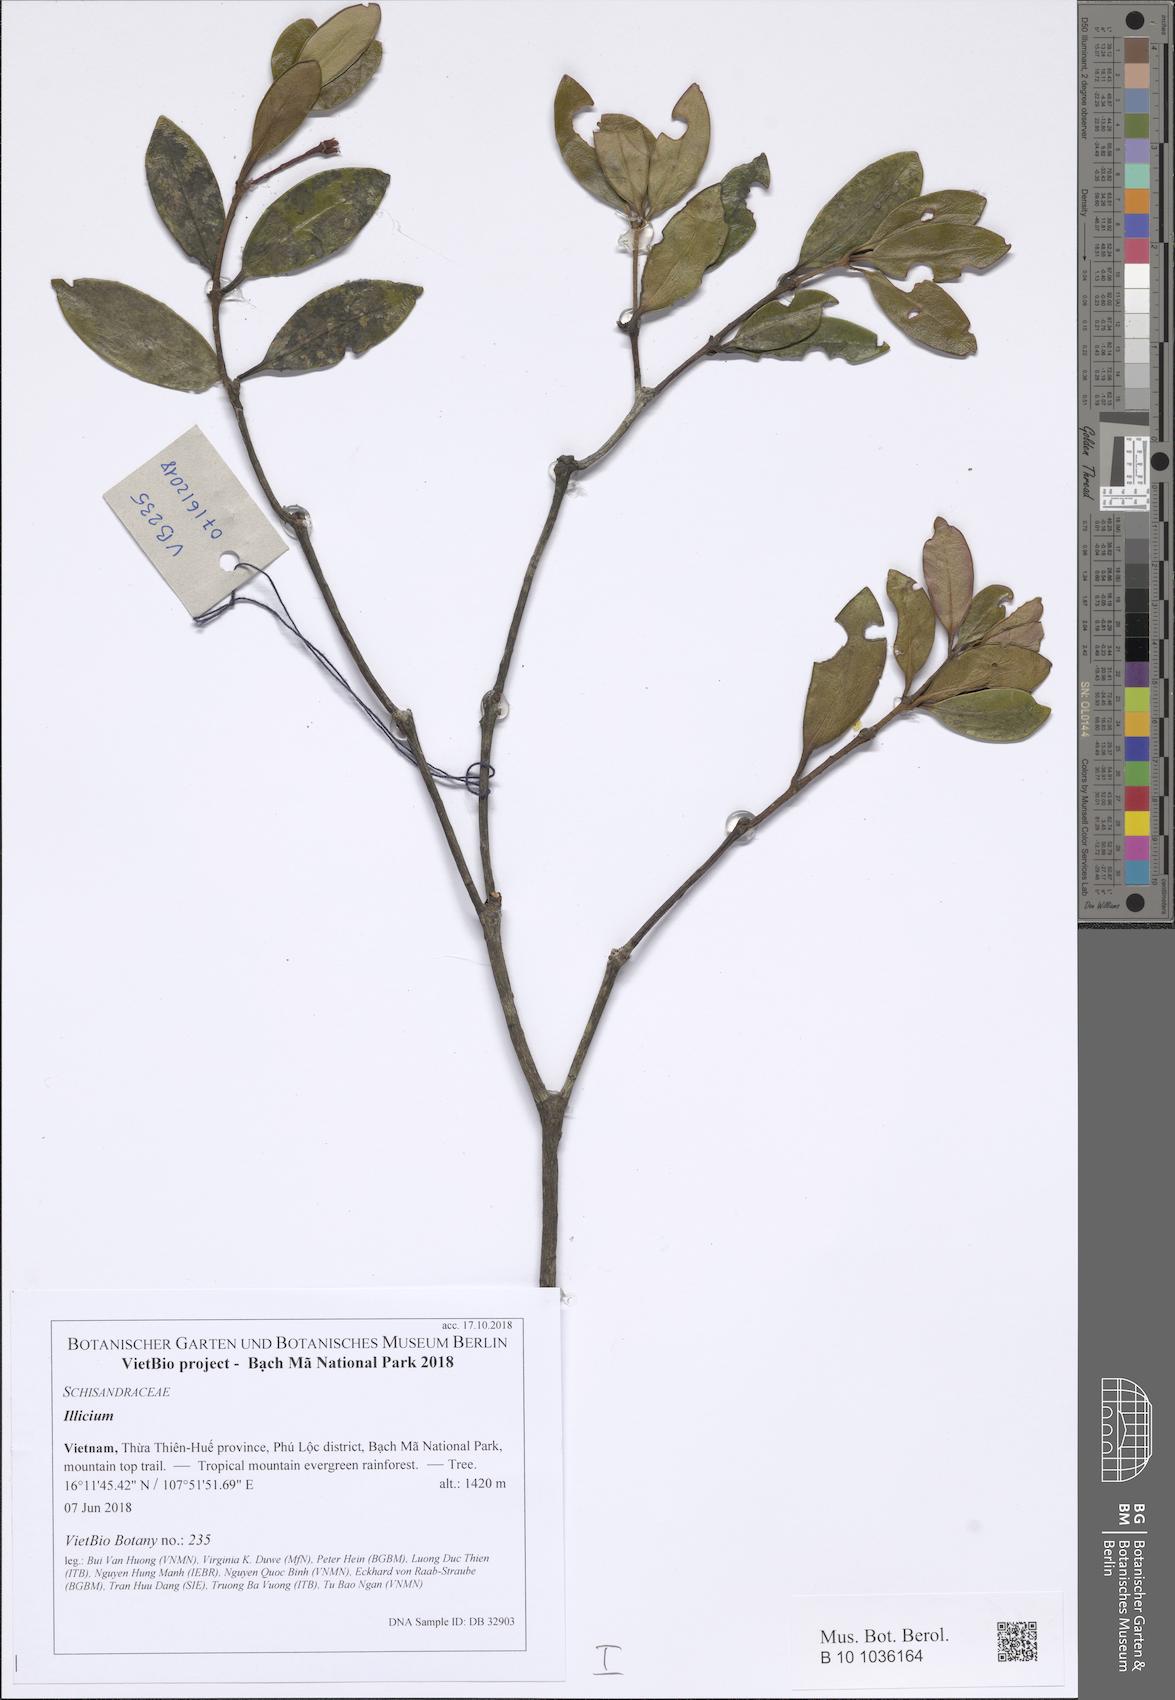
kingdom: Plantae
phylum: Tracheophyta
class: Magnoliopsida
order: Austrobaileyales
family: Schisandraceae
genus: Illicium
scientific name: Illicium parvifolium
